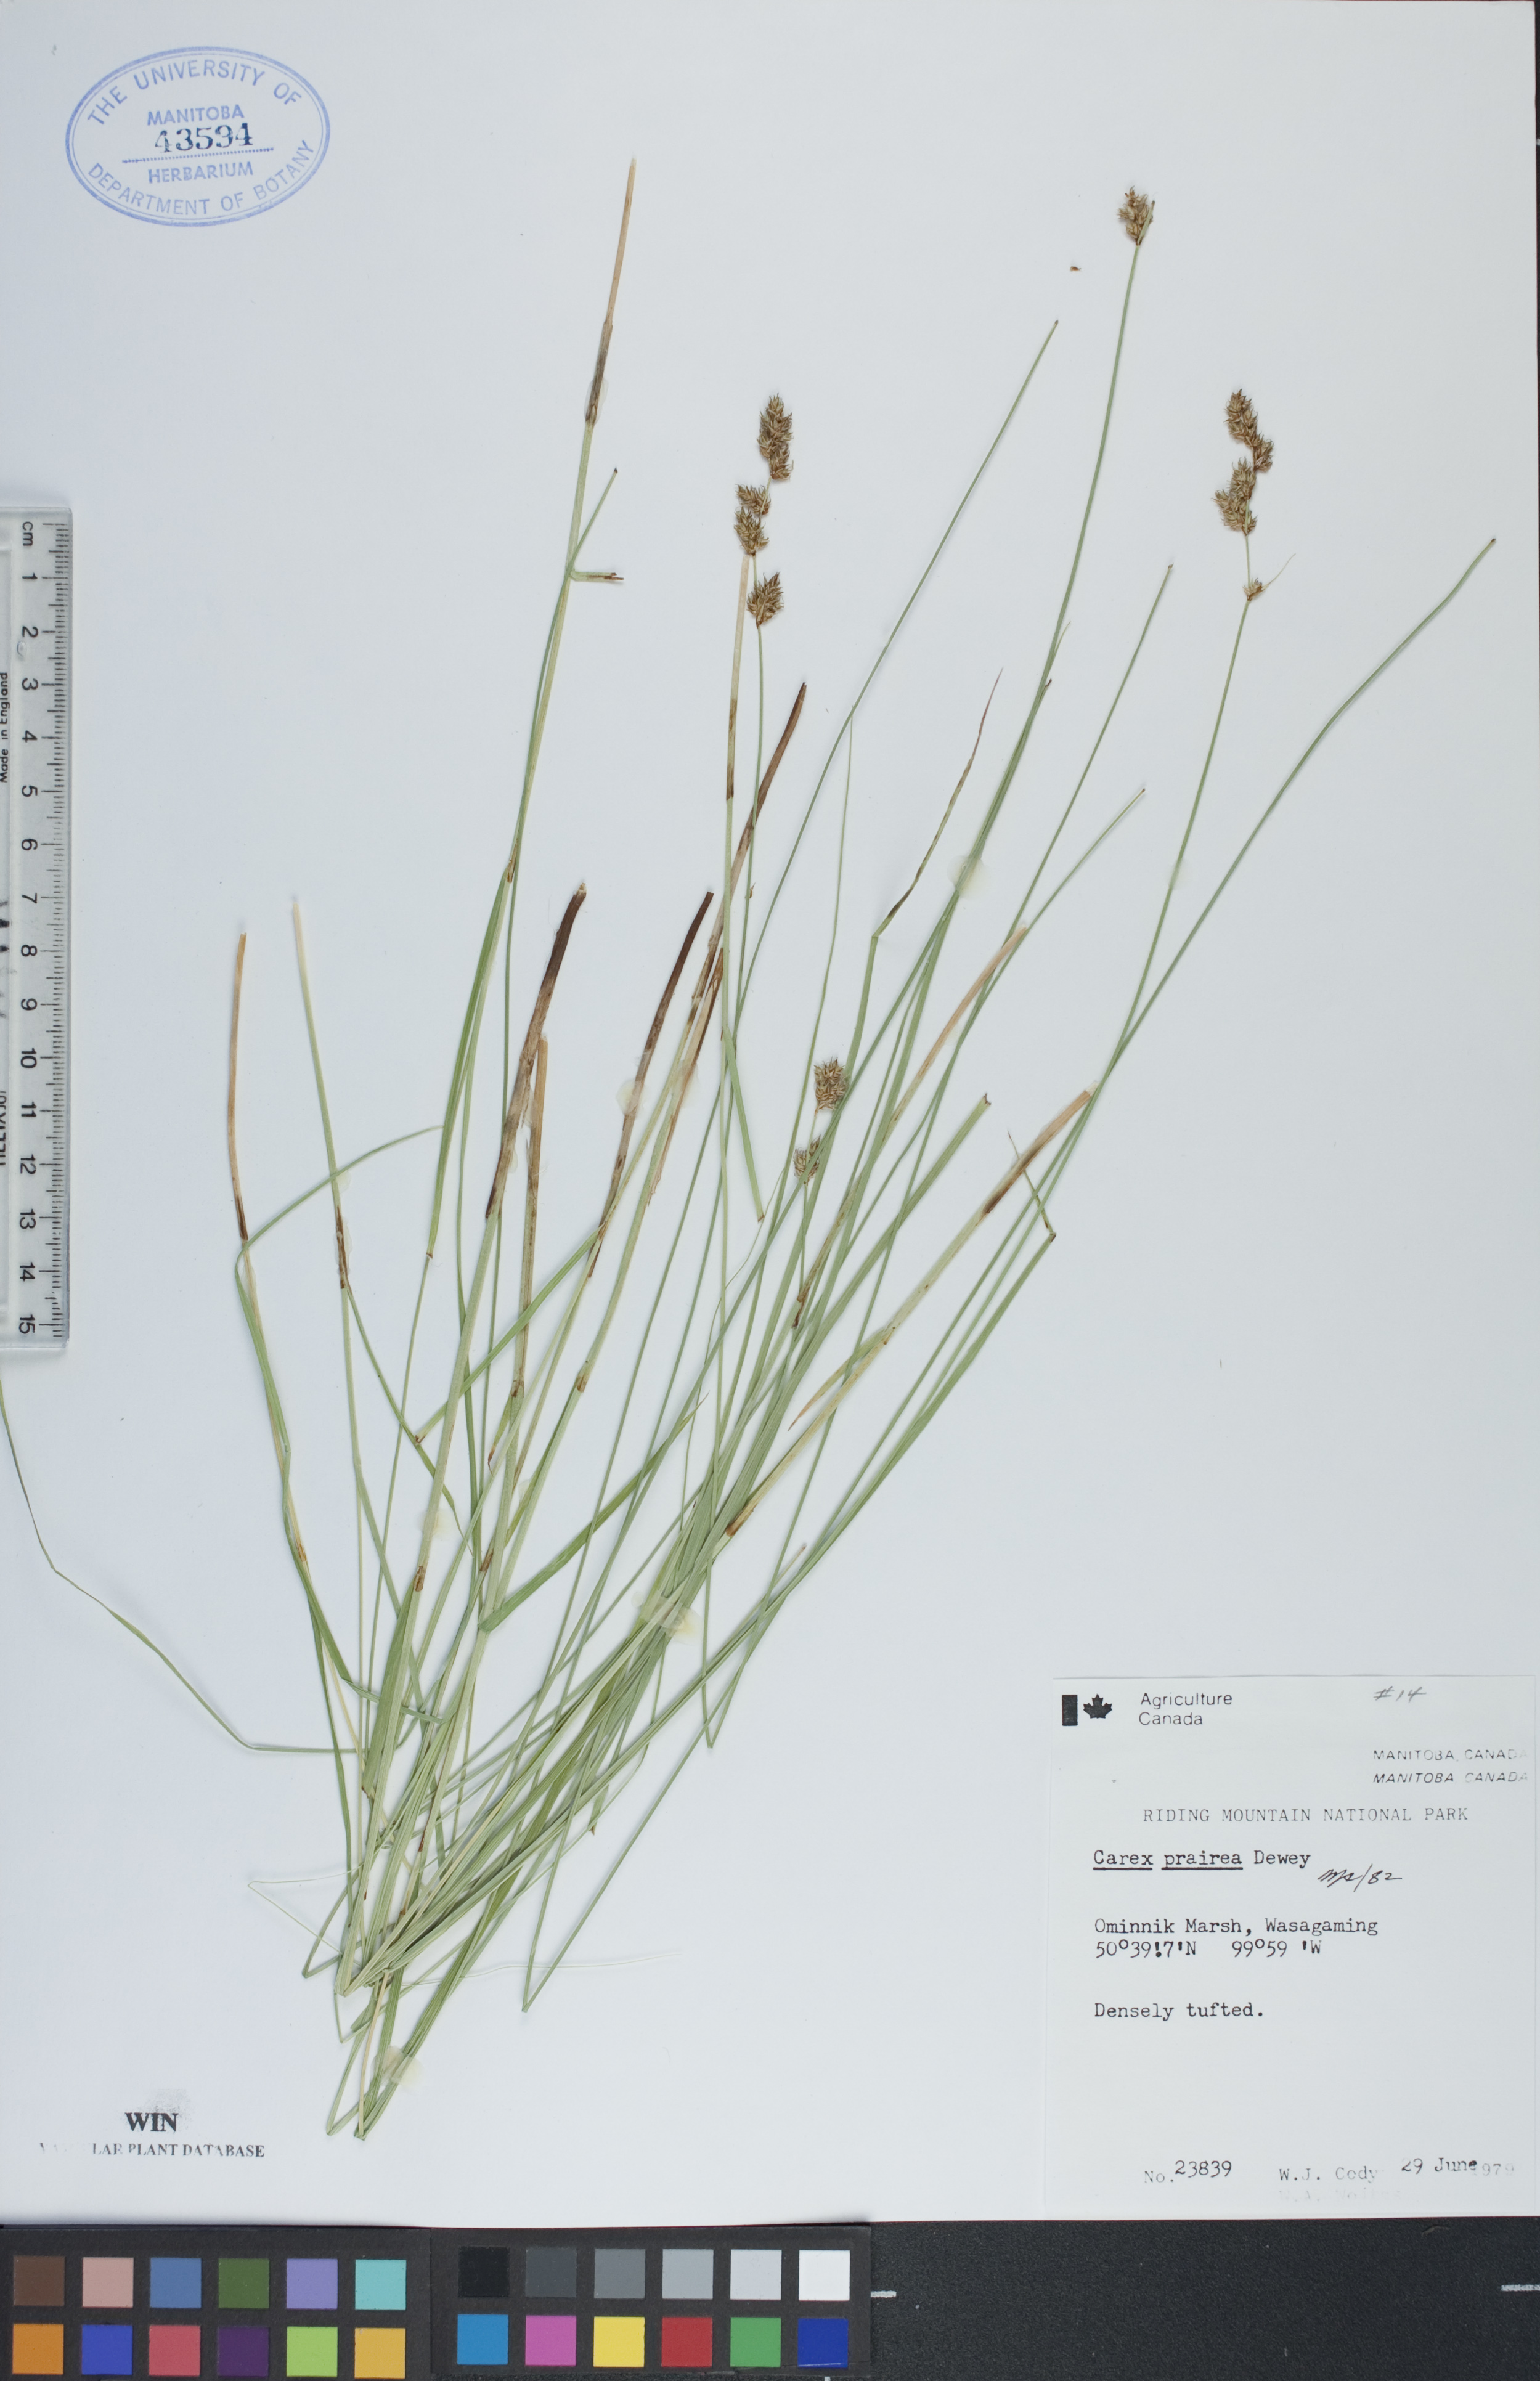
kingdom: Plantae
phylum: Tracheophyta
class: Liliopsida
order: Poales
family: Cyperaceae
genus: Carex
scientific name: Carex prairea
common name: Prairie sedge
